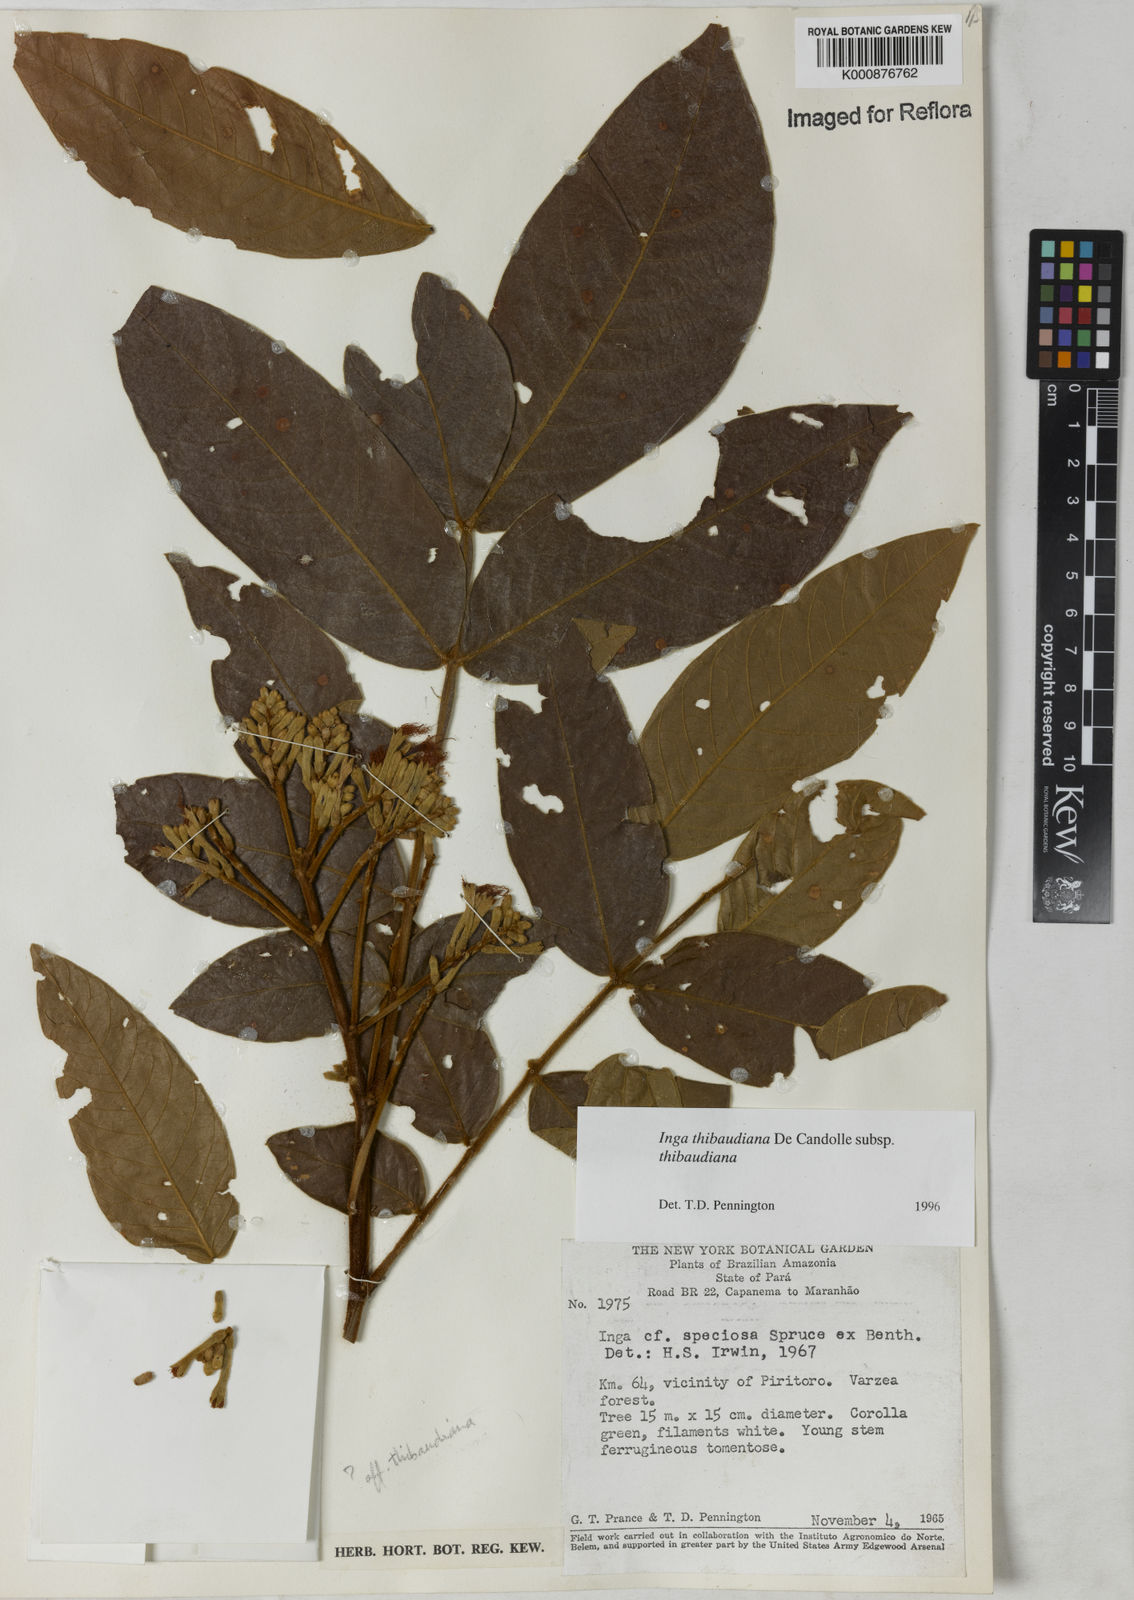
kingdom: Plantae
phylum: Tracheophyta
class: Magnoliopsida
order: Fabales
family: Fabaceae
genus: Inga
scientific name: Inga thibaudiana
